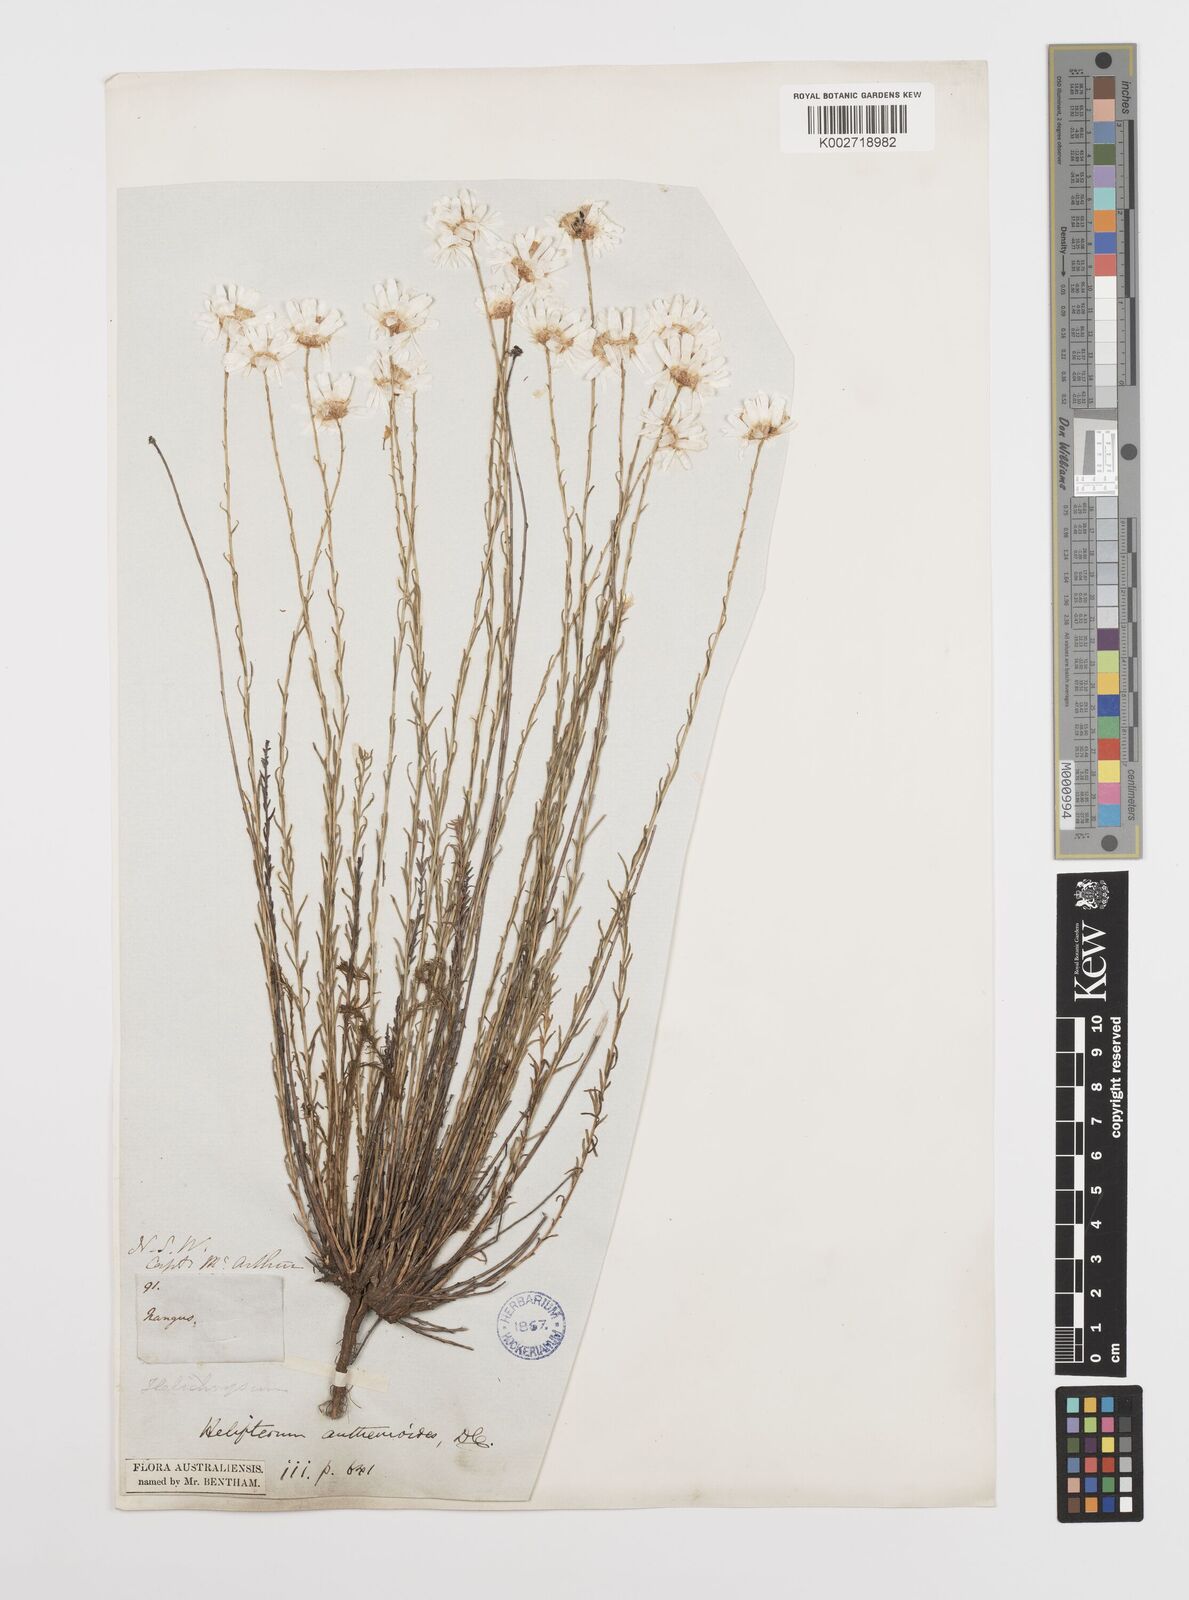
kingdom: Plantae
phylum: Tracheophyta
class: Magnoliopsida
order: Asterales
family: Asteraceae
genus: Rhodanthe
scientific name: Rhodanthe anthemoides
